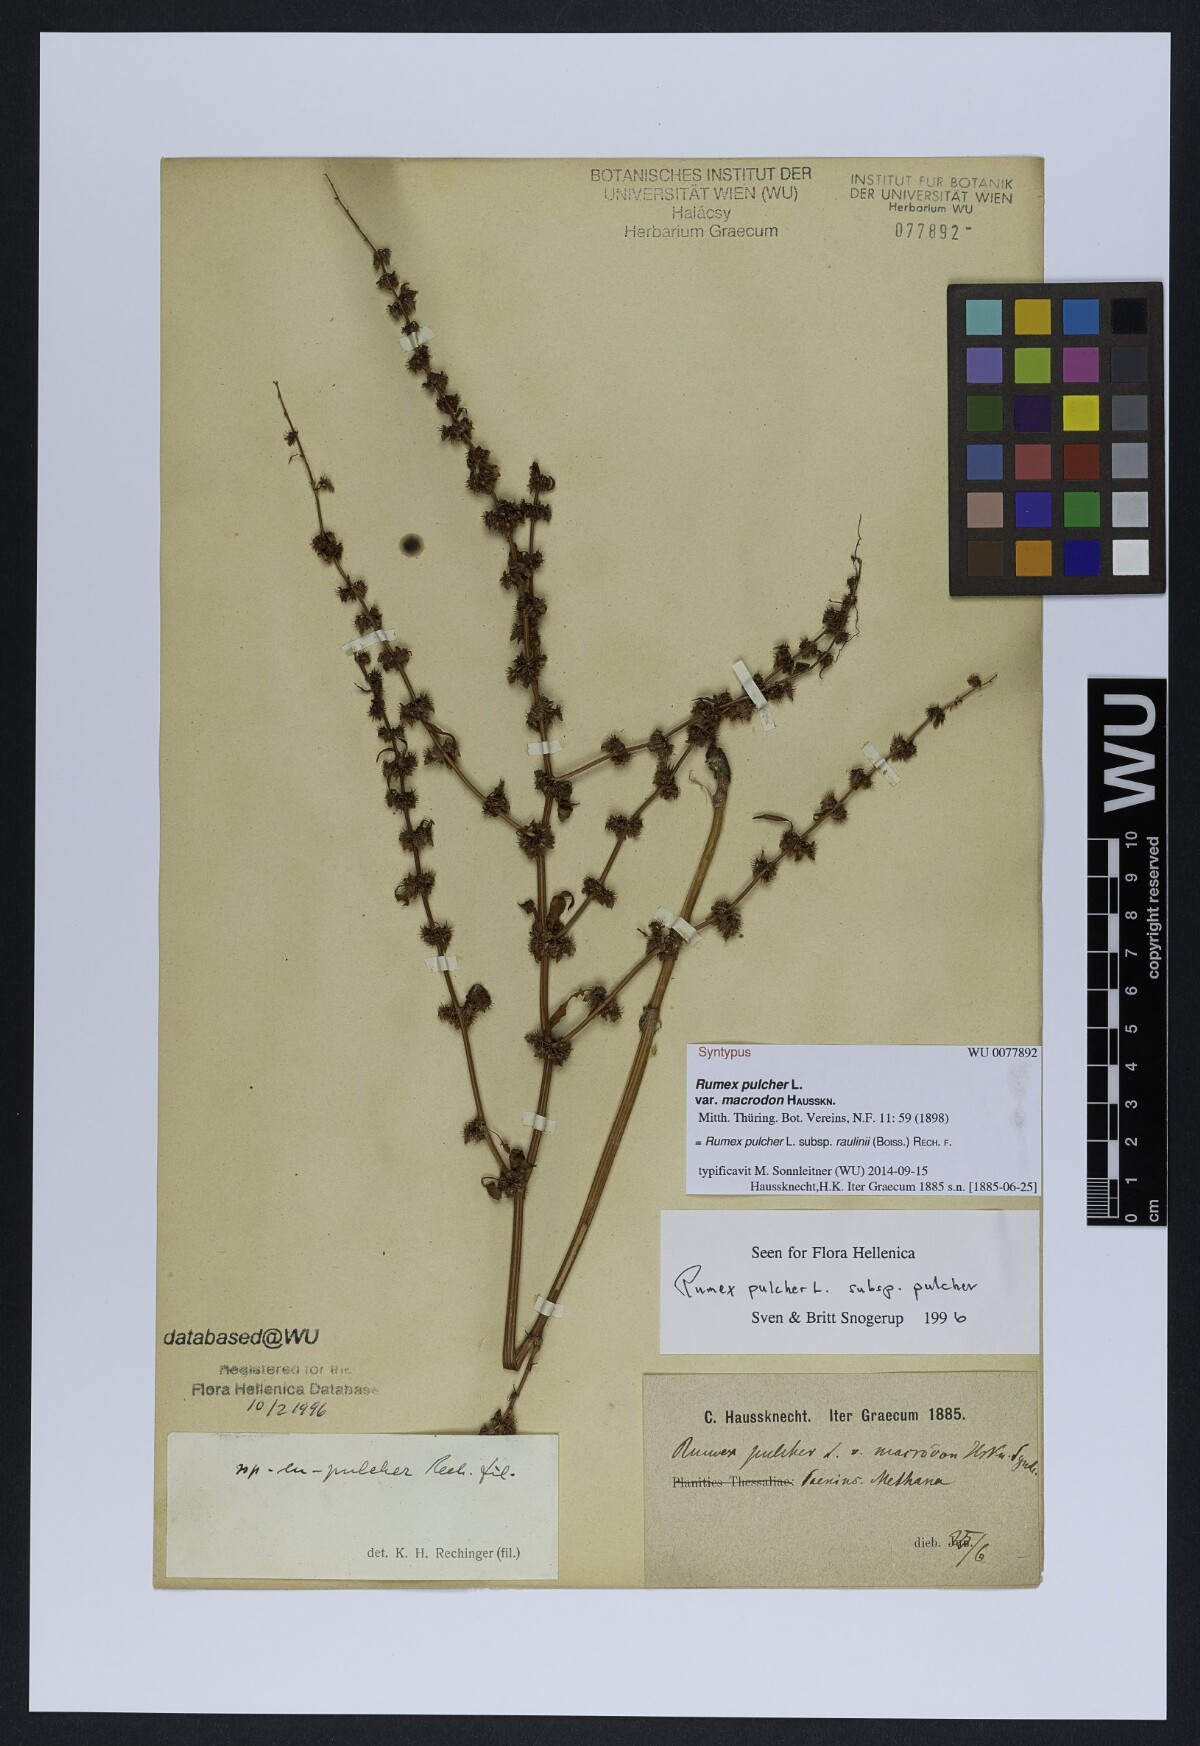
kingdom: Plantae
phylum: Tracheophyta
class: Magnoliopsida
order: Caryophyllales
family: Polygonaceae
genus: Rumex
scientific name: Rumex pulcher
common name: Fiddle dock
